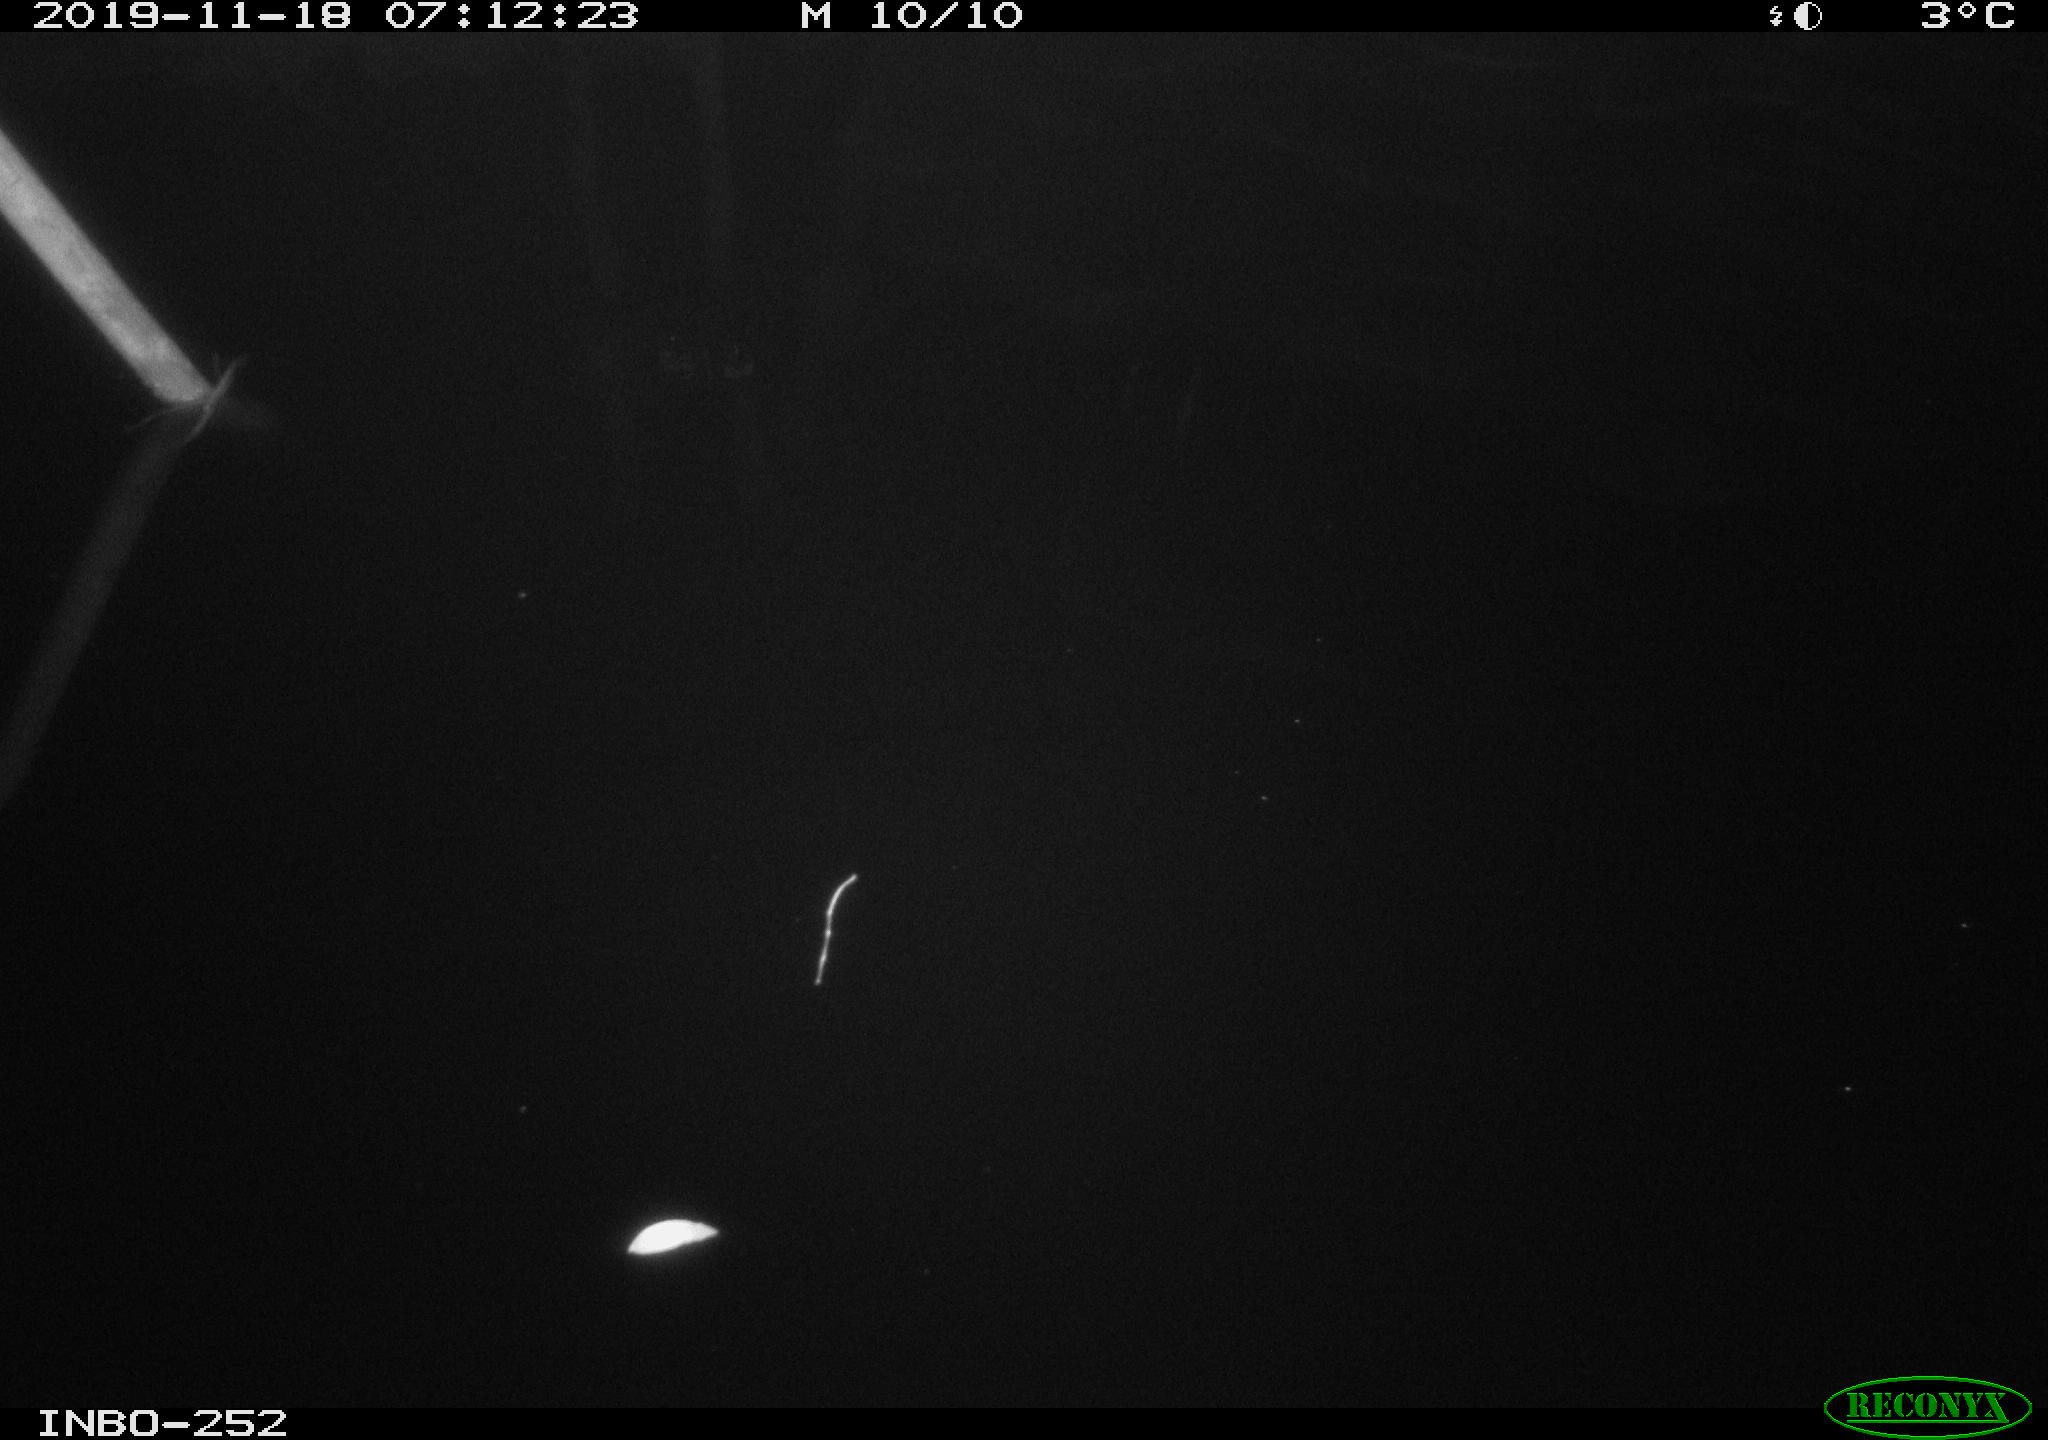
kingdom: Animalia
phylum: Chordata
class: Aves
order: Anseriformes
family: Anatidae
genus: Anas
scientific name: Anas platyrhynchos
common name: Mallard
